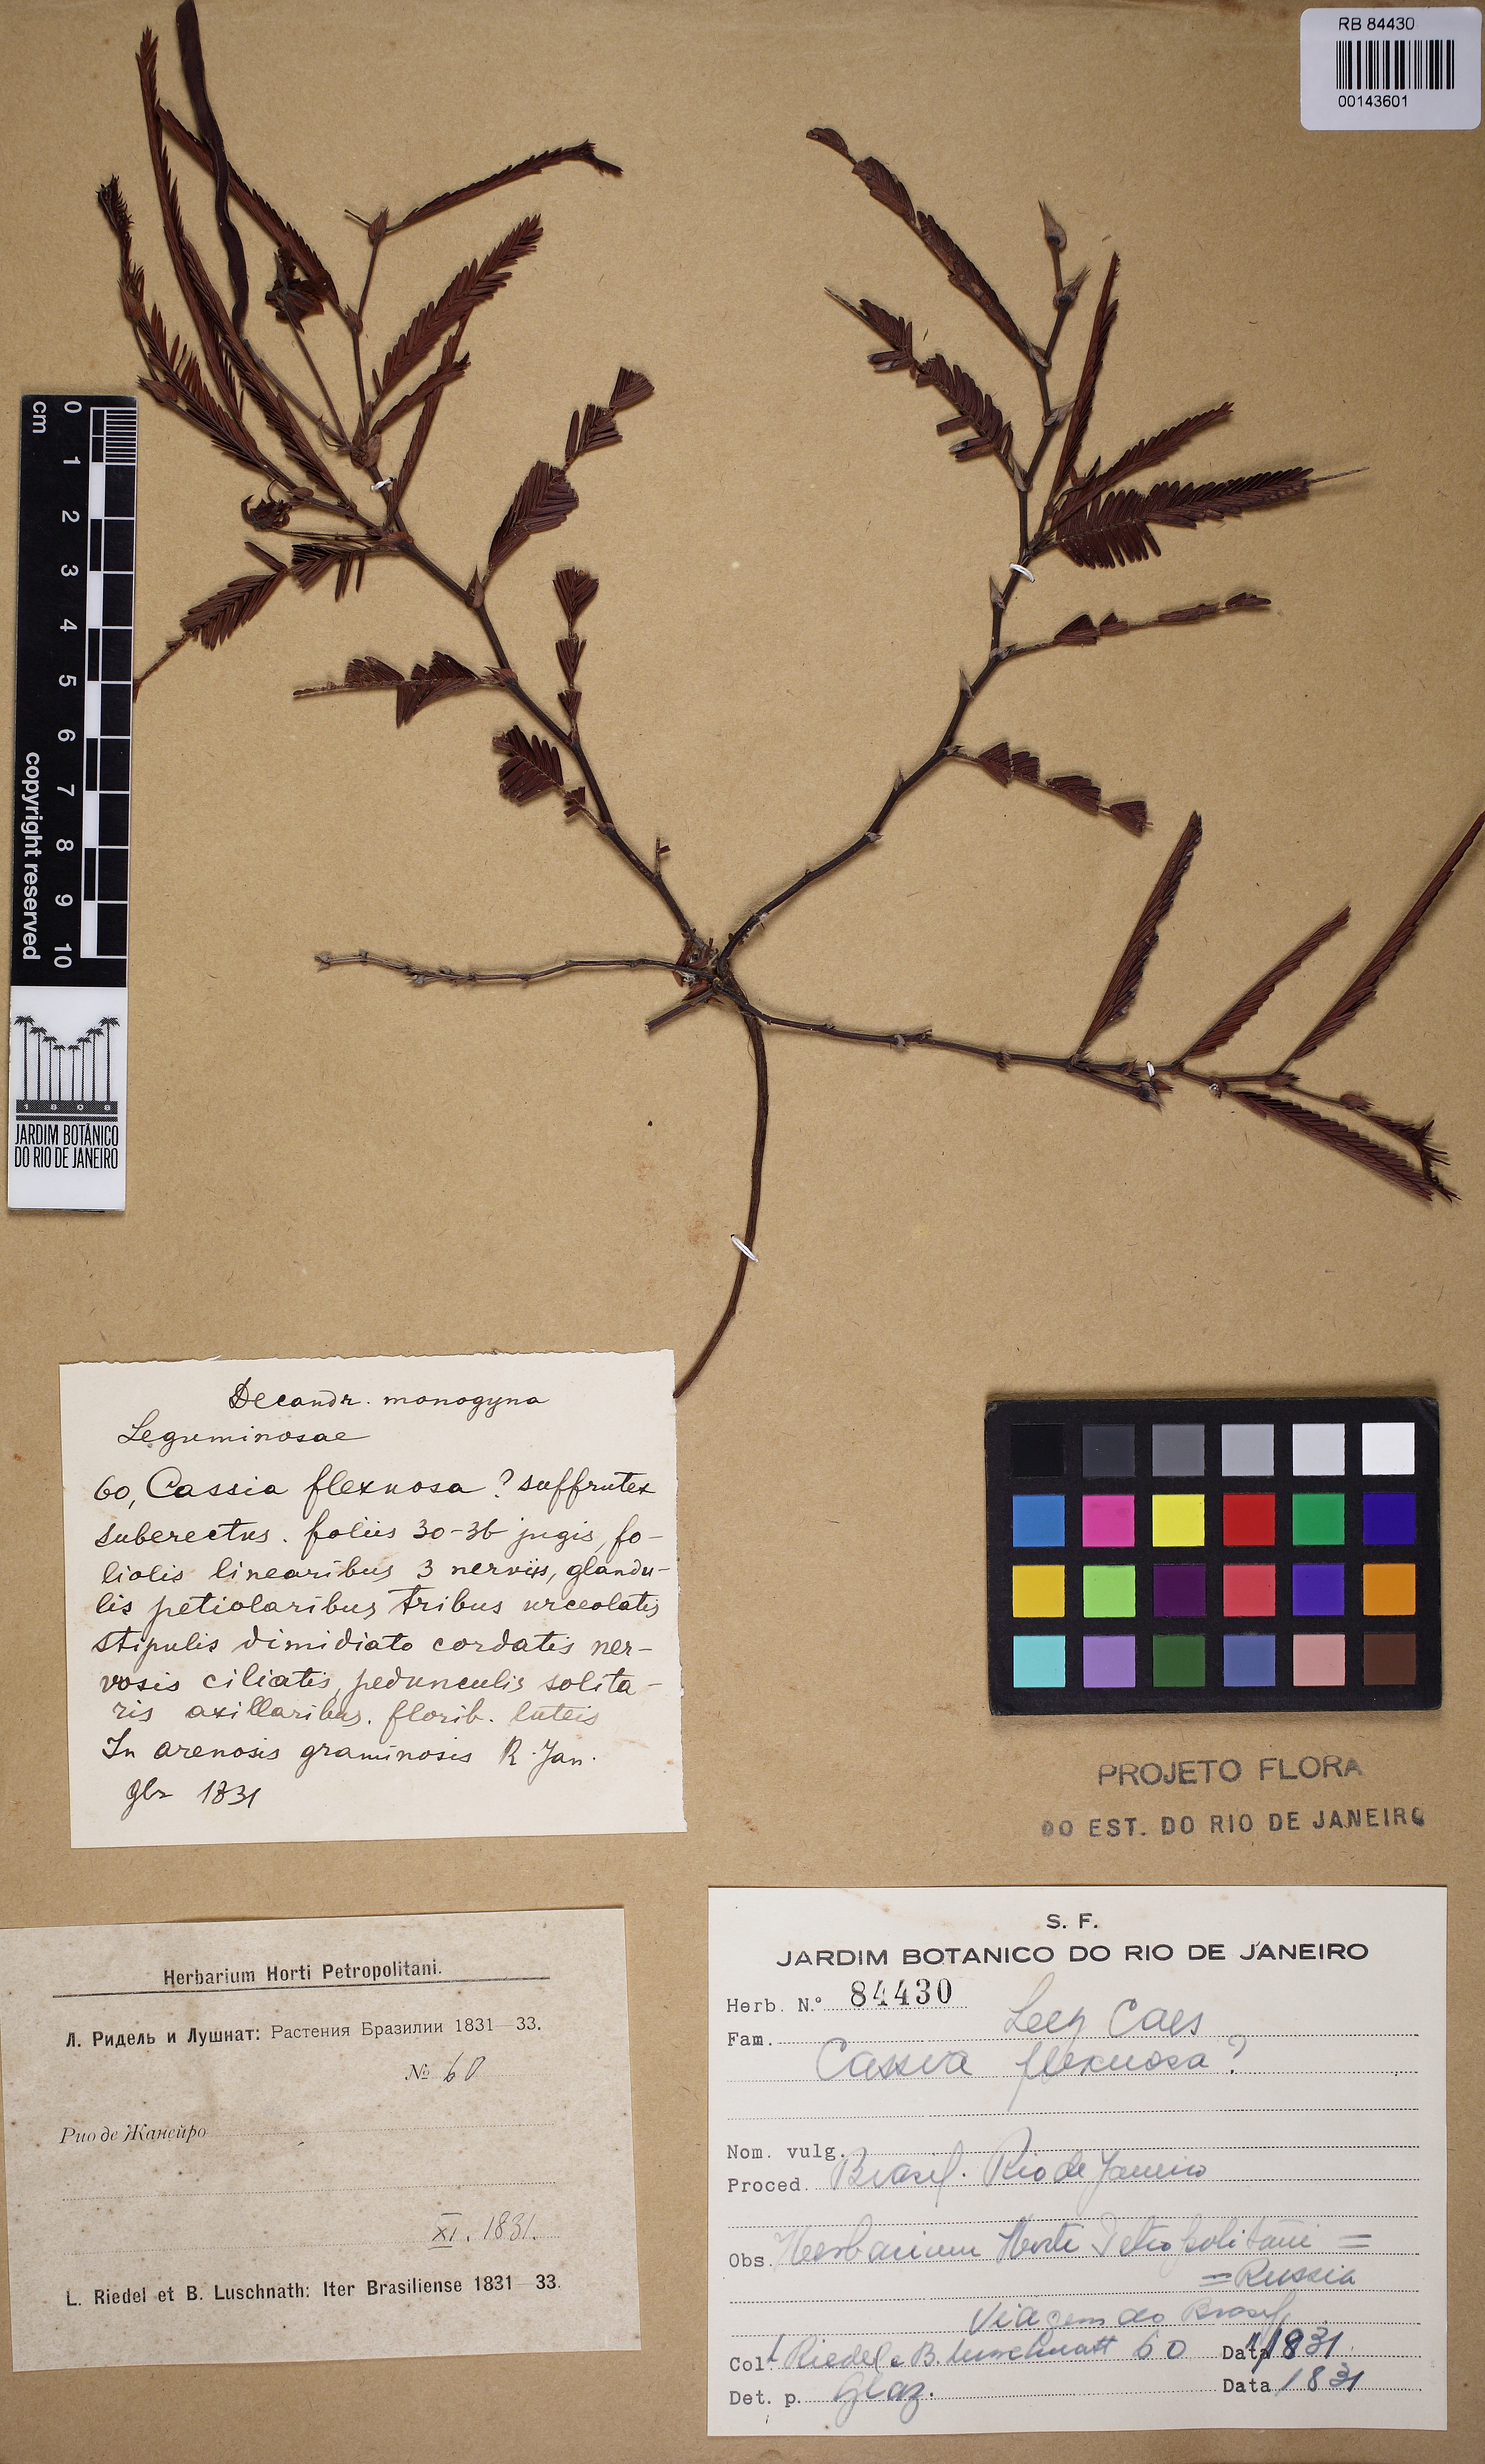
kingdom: Plantae
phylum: Tracheophyta
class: Magnoliopsida
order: Fabales
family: Fabaceae
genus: Chamaecrista
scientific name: Chamaecrista flexuosa
